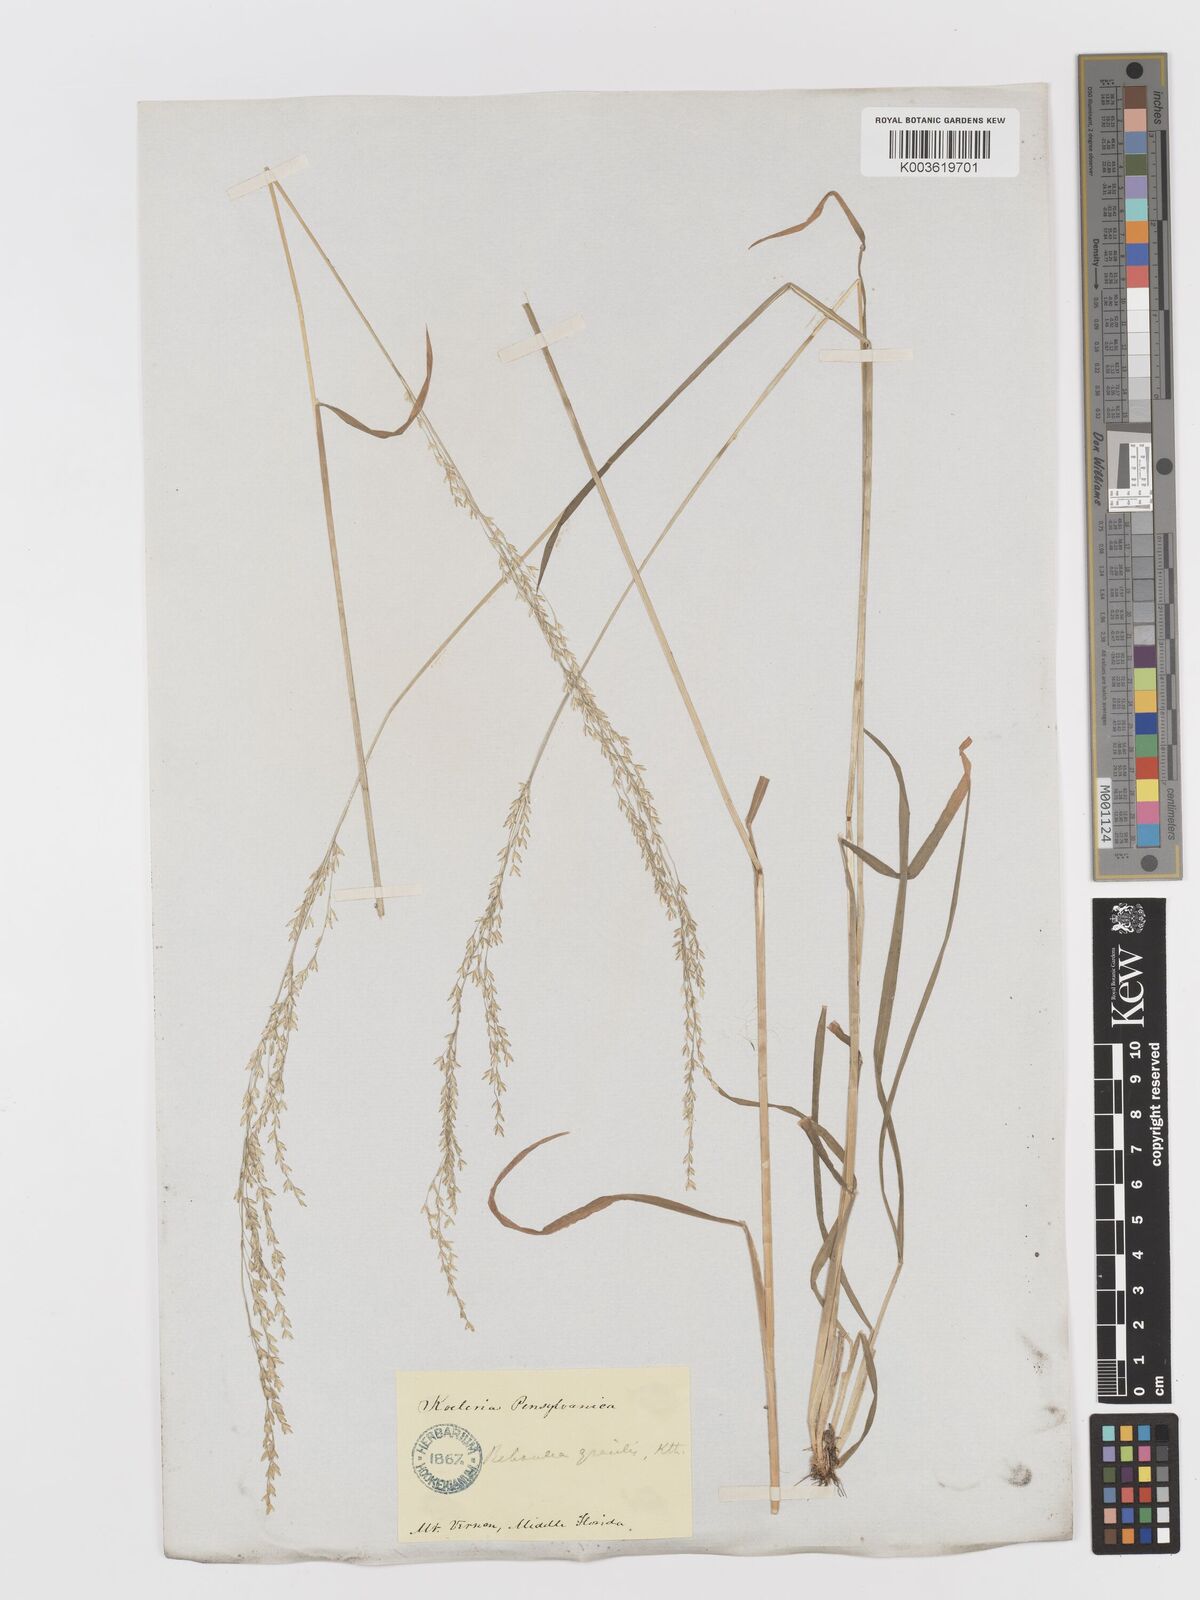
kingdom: Plantae
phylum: Tracheophyta
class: Liliopsida
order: Poales
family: Poaceae
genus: Sphenopholis
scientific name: Sphenopholis obtusata
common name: Prairie grass
